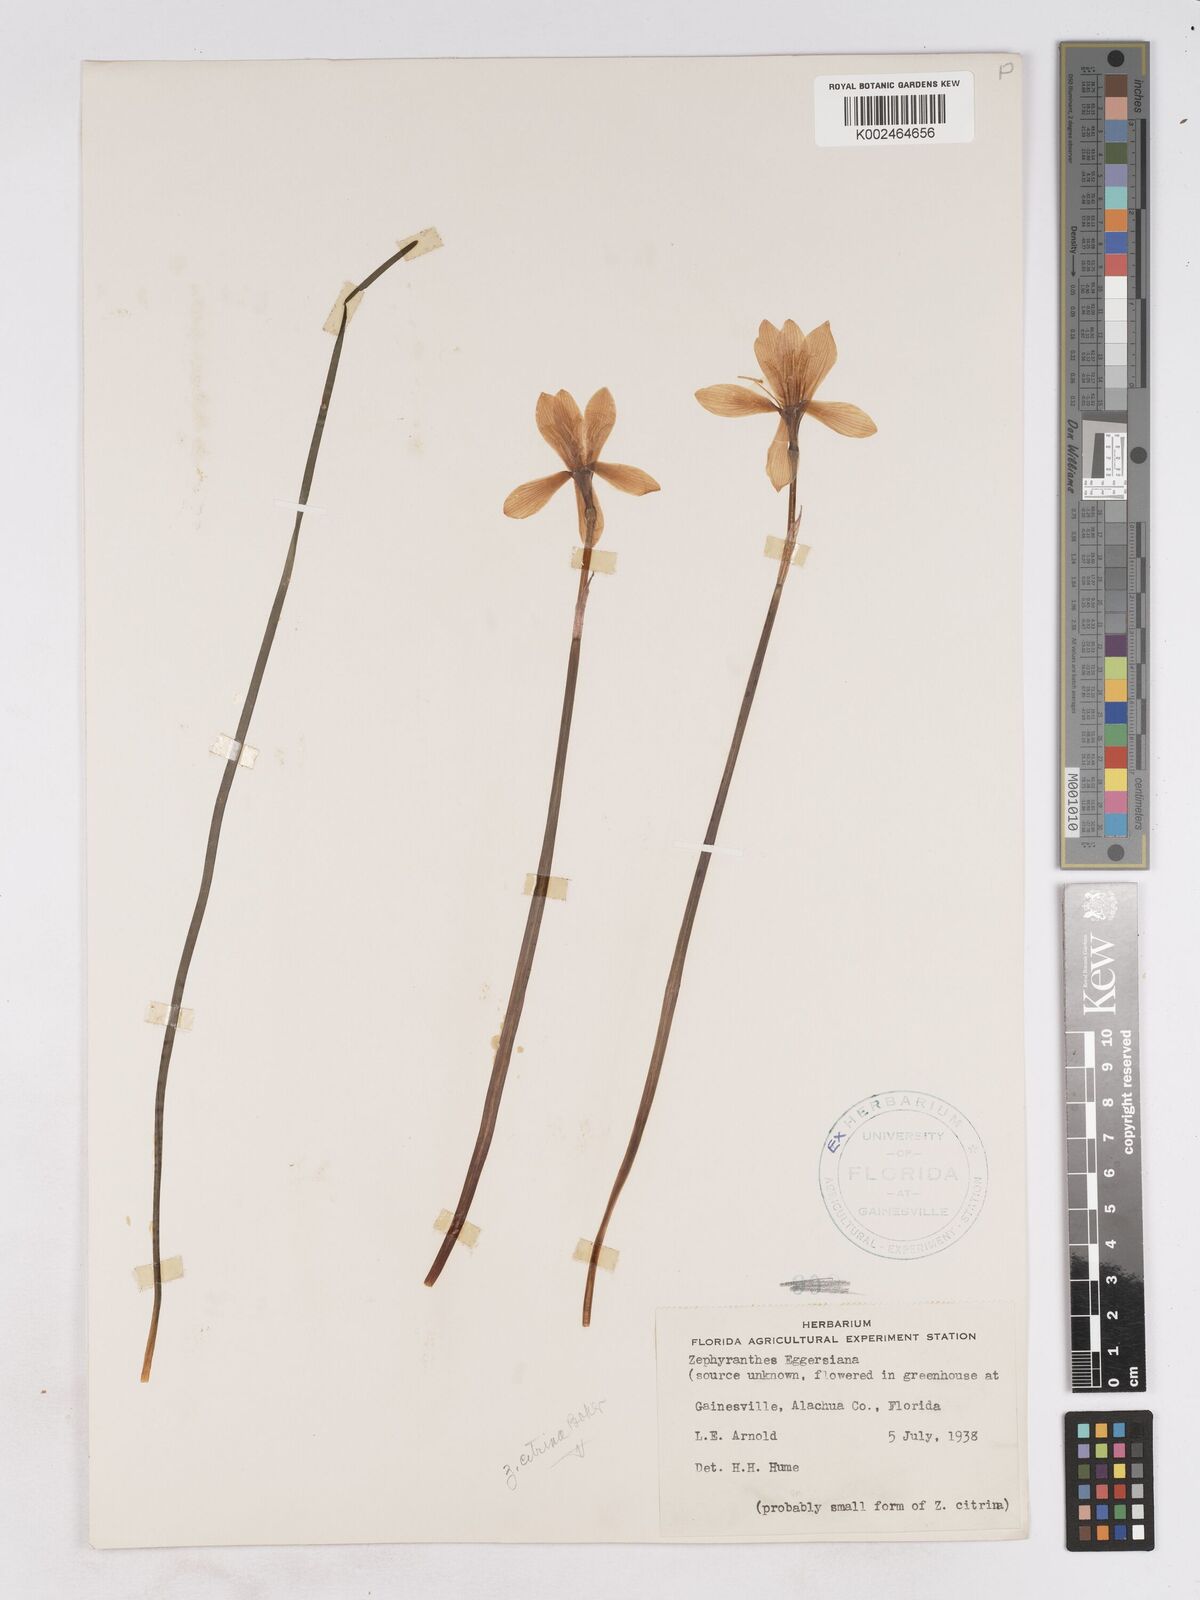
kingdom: Plantae
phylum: Tracheophyta
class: Liliopsida
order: Asparagales
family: Amaryllidaceae
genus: Zephyranthes
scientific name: Zephyranthes citrina
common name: Citron zephyrlily
